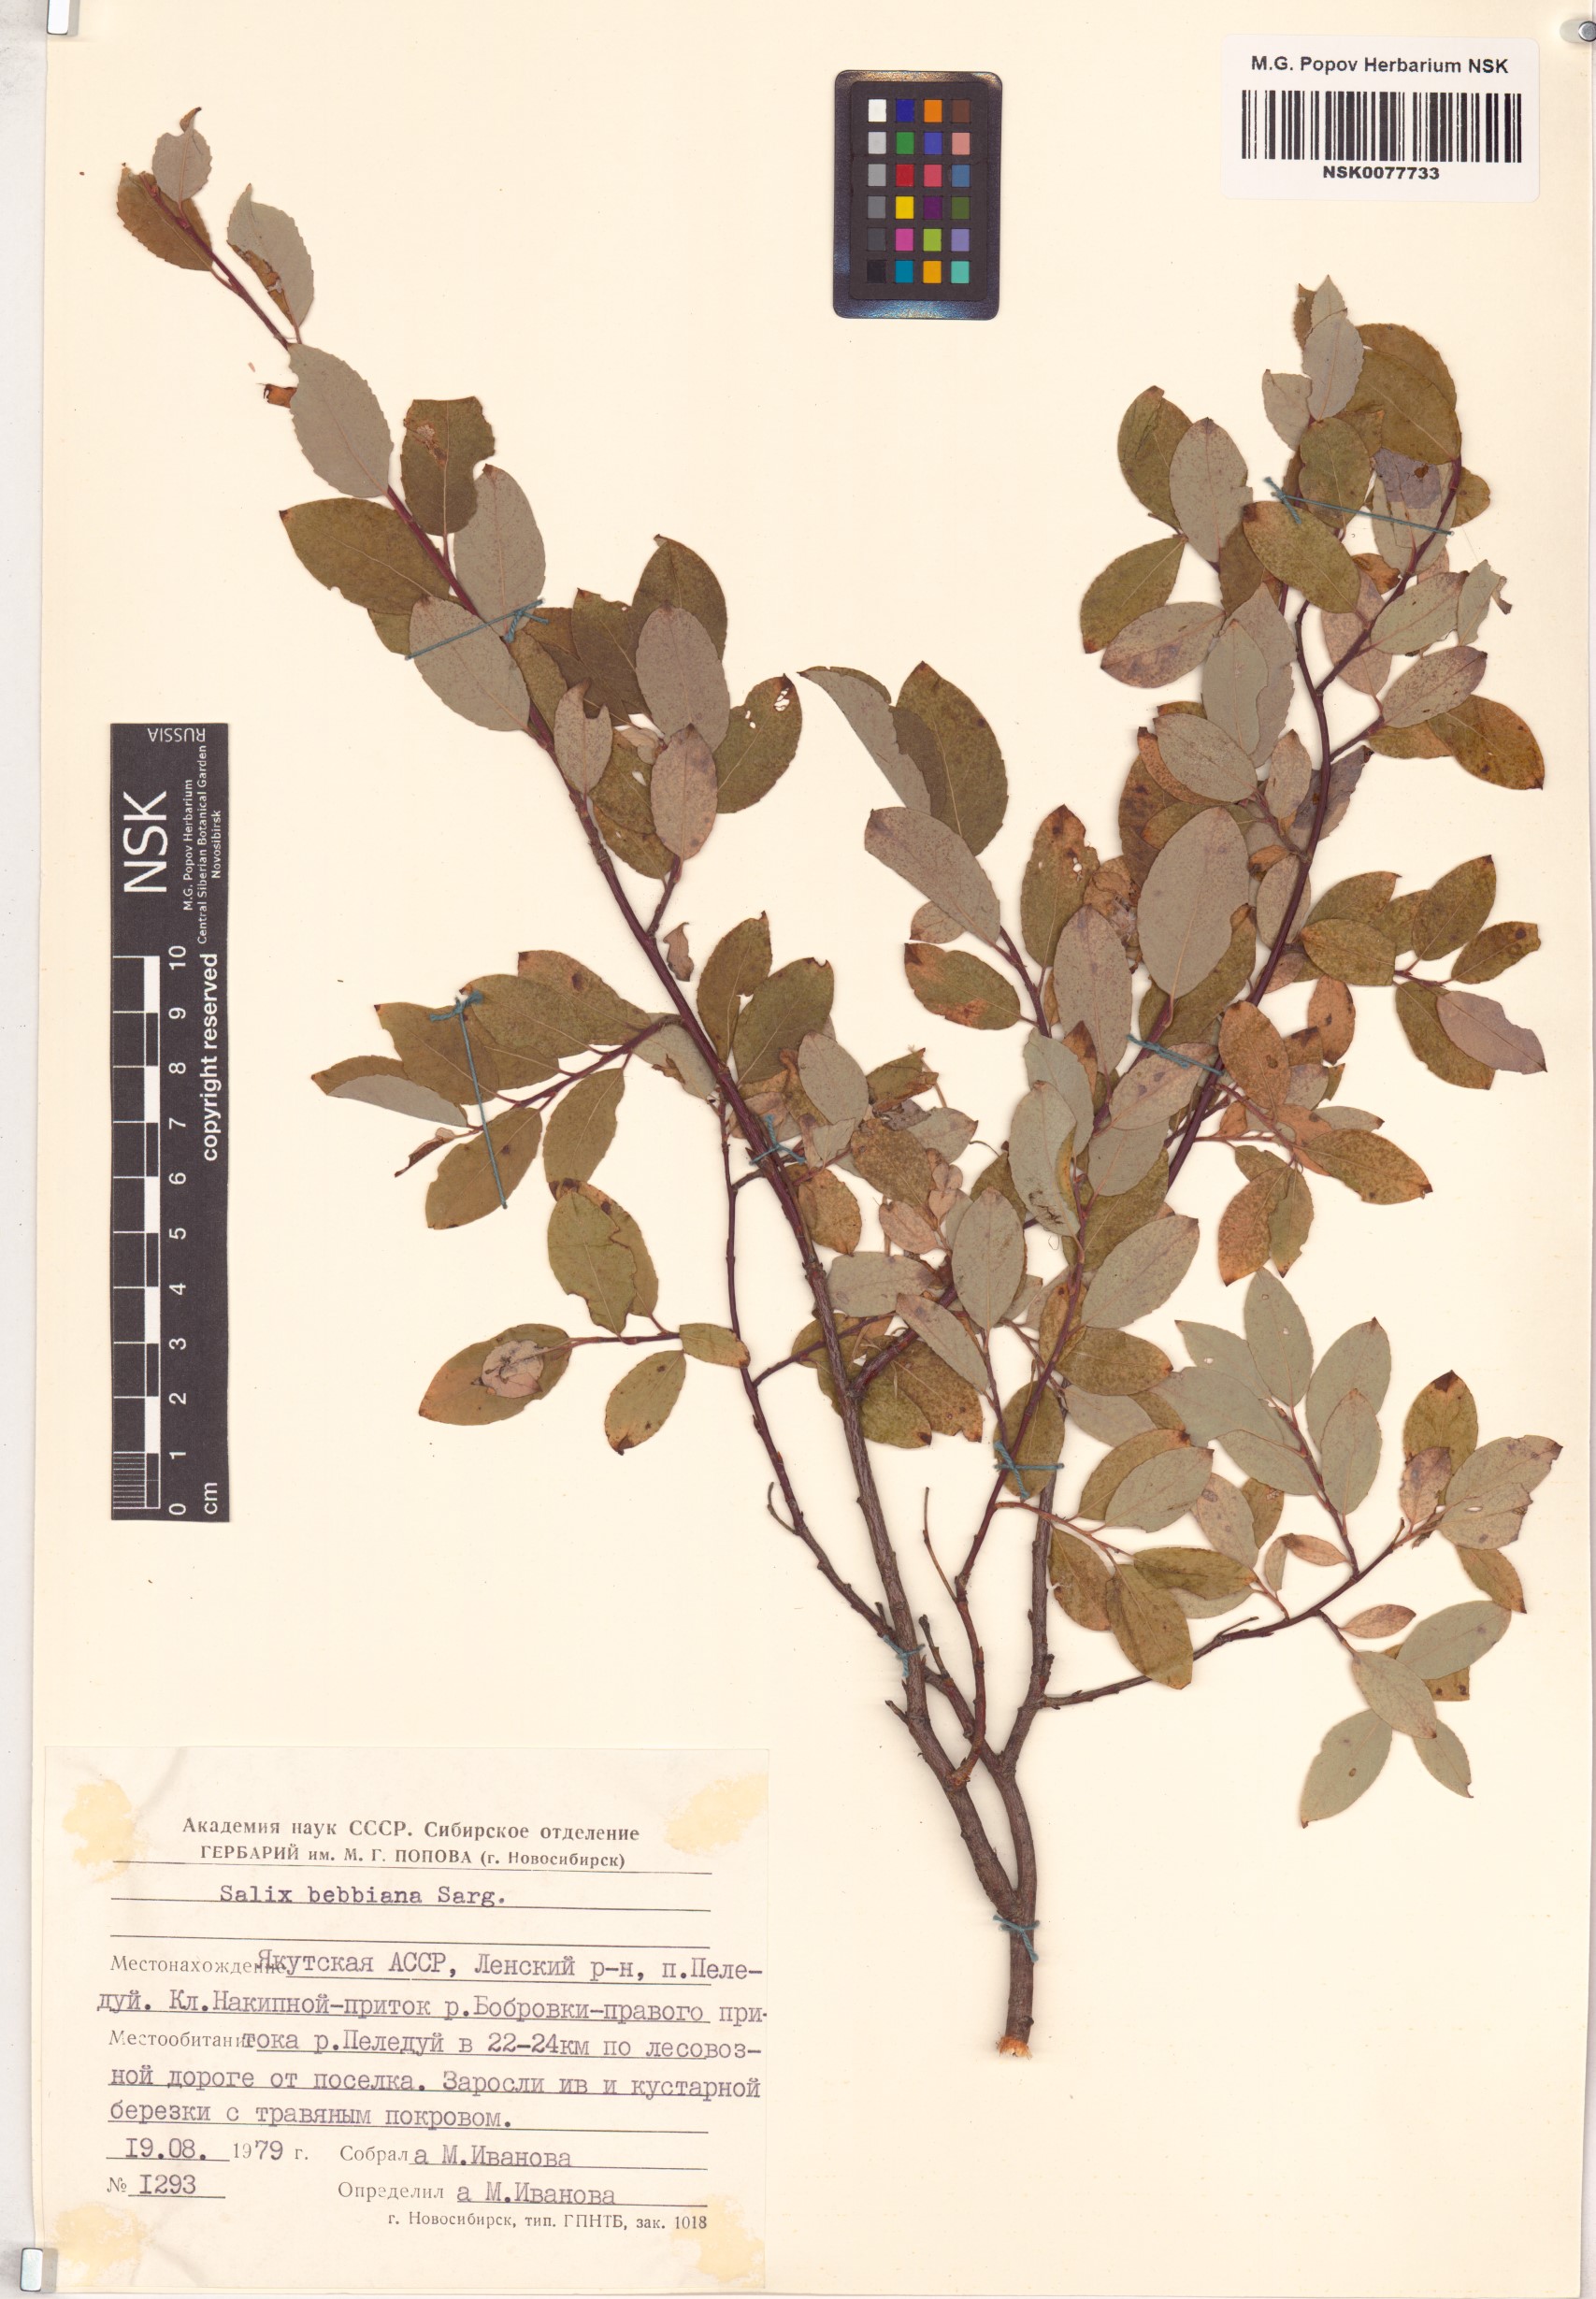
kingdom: Plantae
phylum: Tracheophyta
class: Magnoliopsida
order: Malpighiales
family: Salicaceae
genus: Salix
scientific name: Salix bebbiana
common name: Bebb's willow
